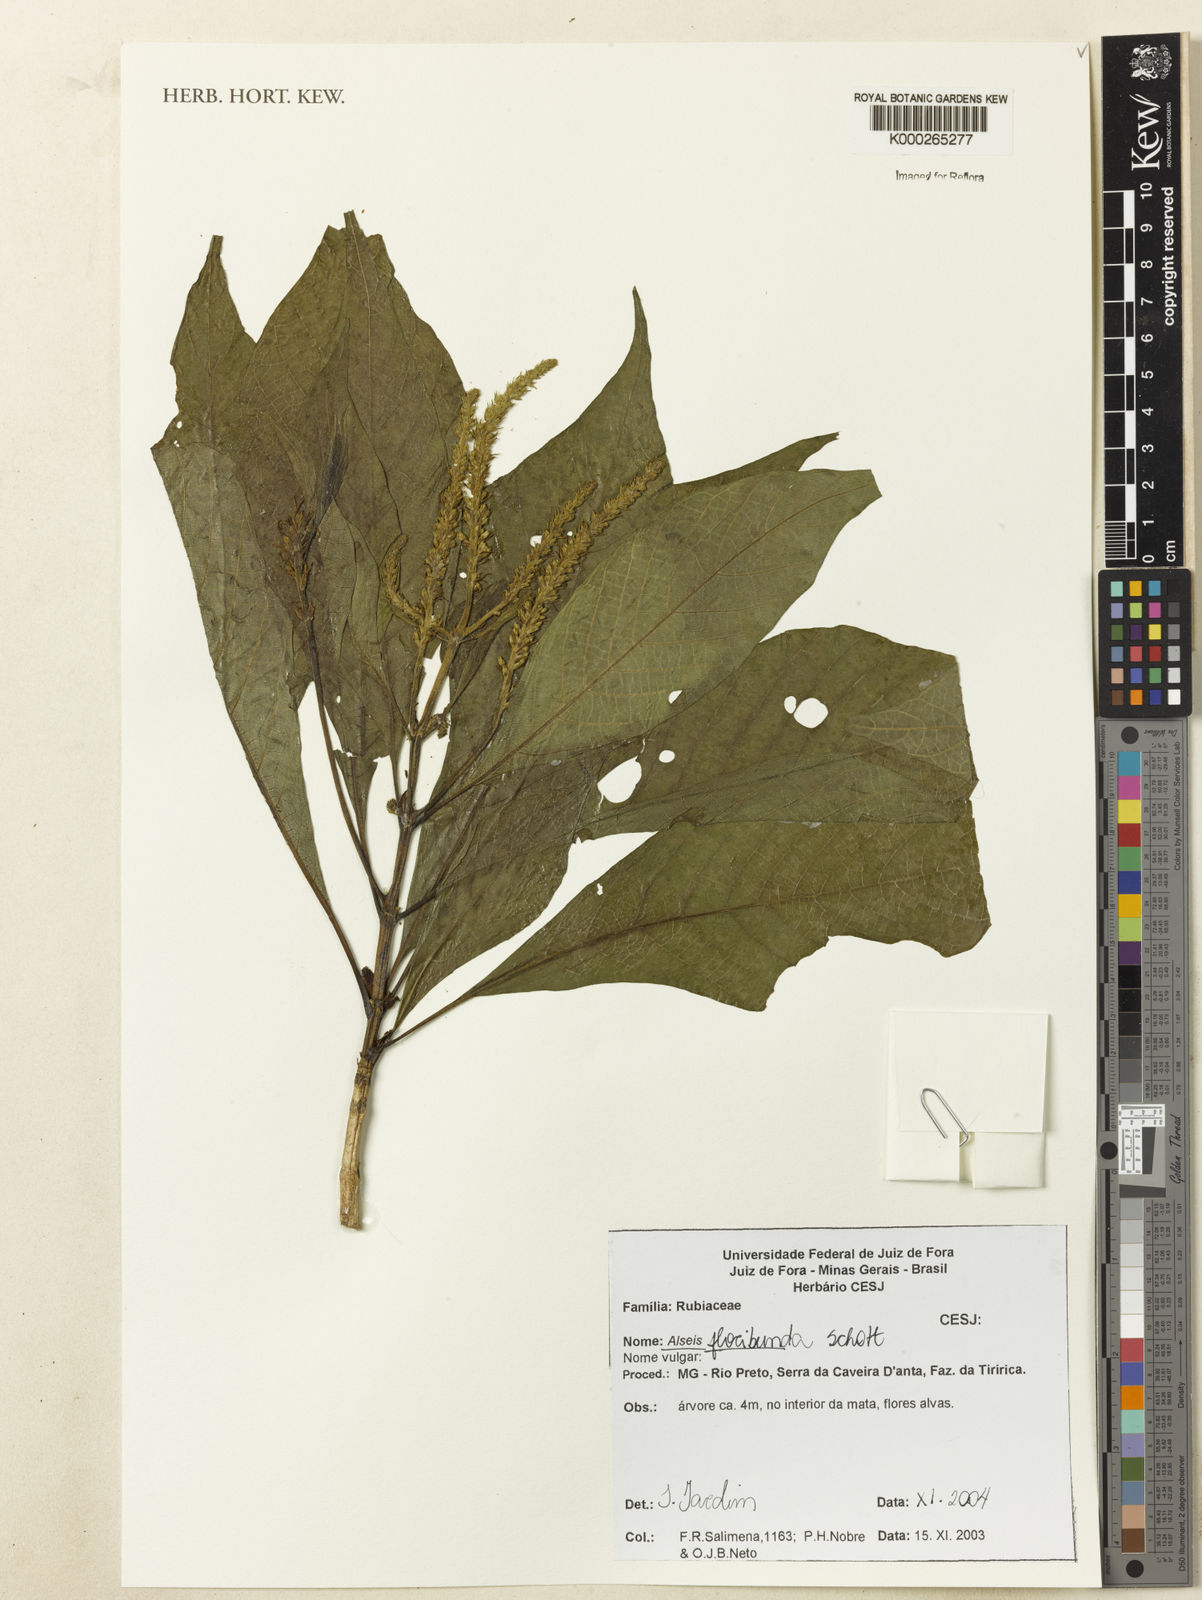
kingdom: Plantae
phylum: Tracheophyta
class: Magnoliopsida
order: Gentianales
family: Rubiaceae
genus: Alseis
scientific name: Alseis floribunda
